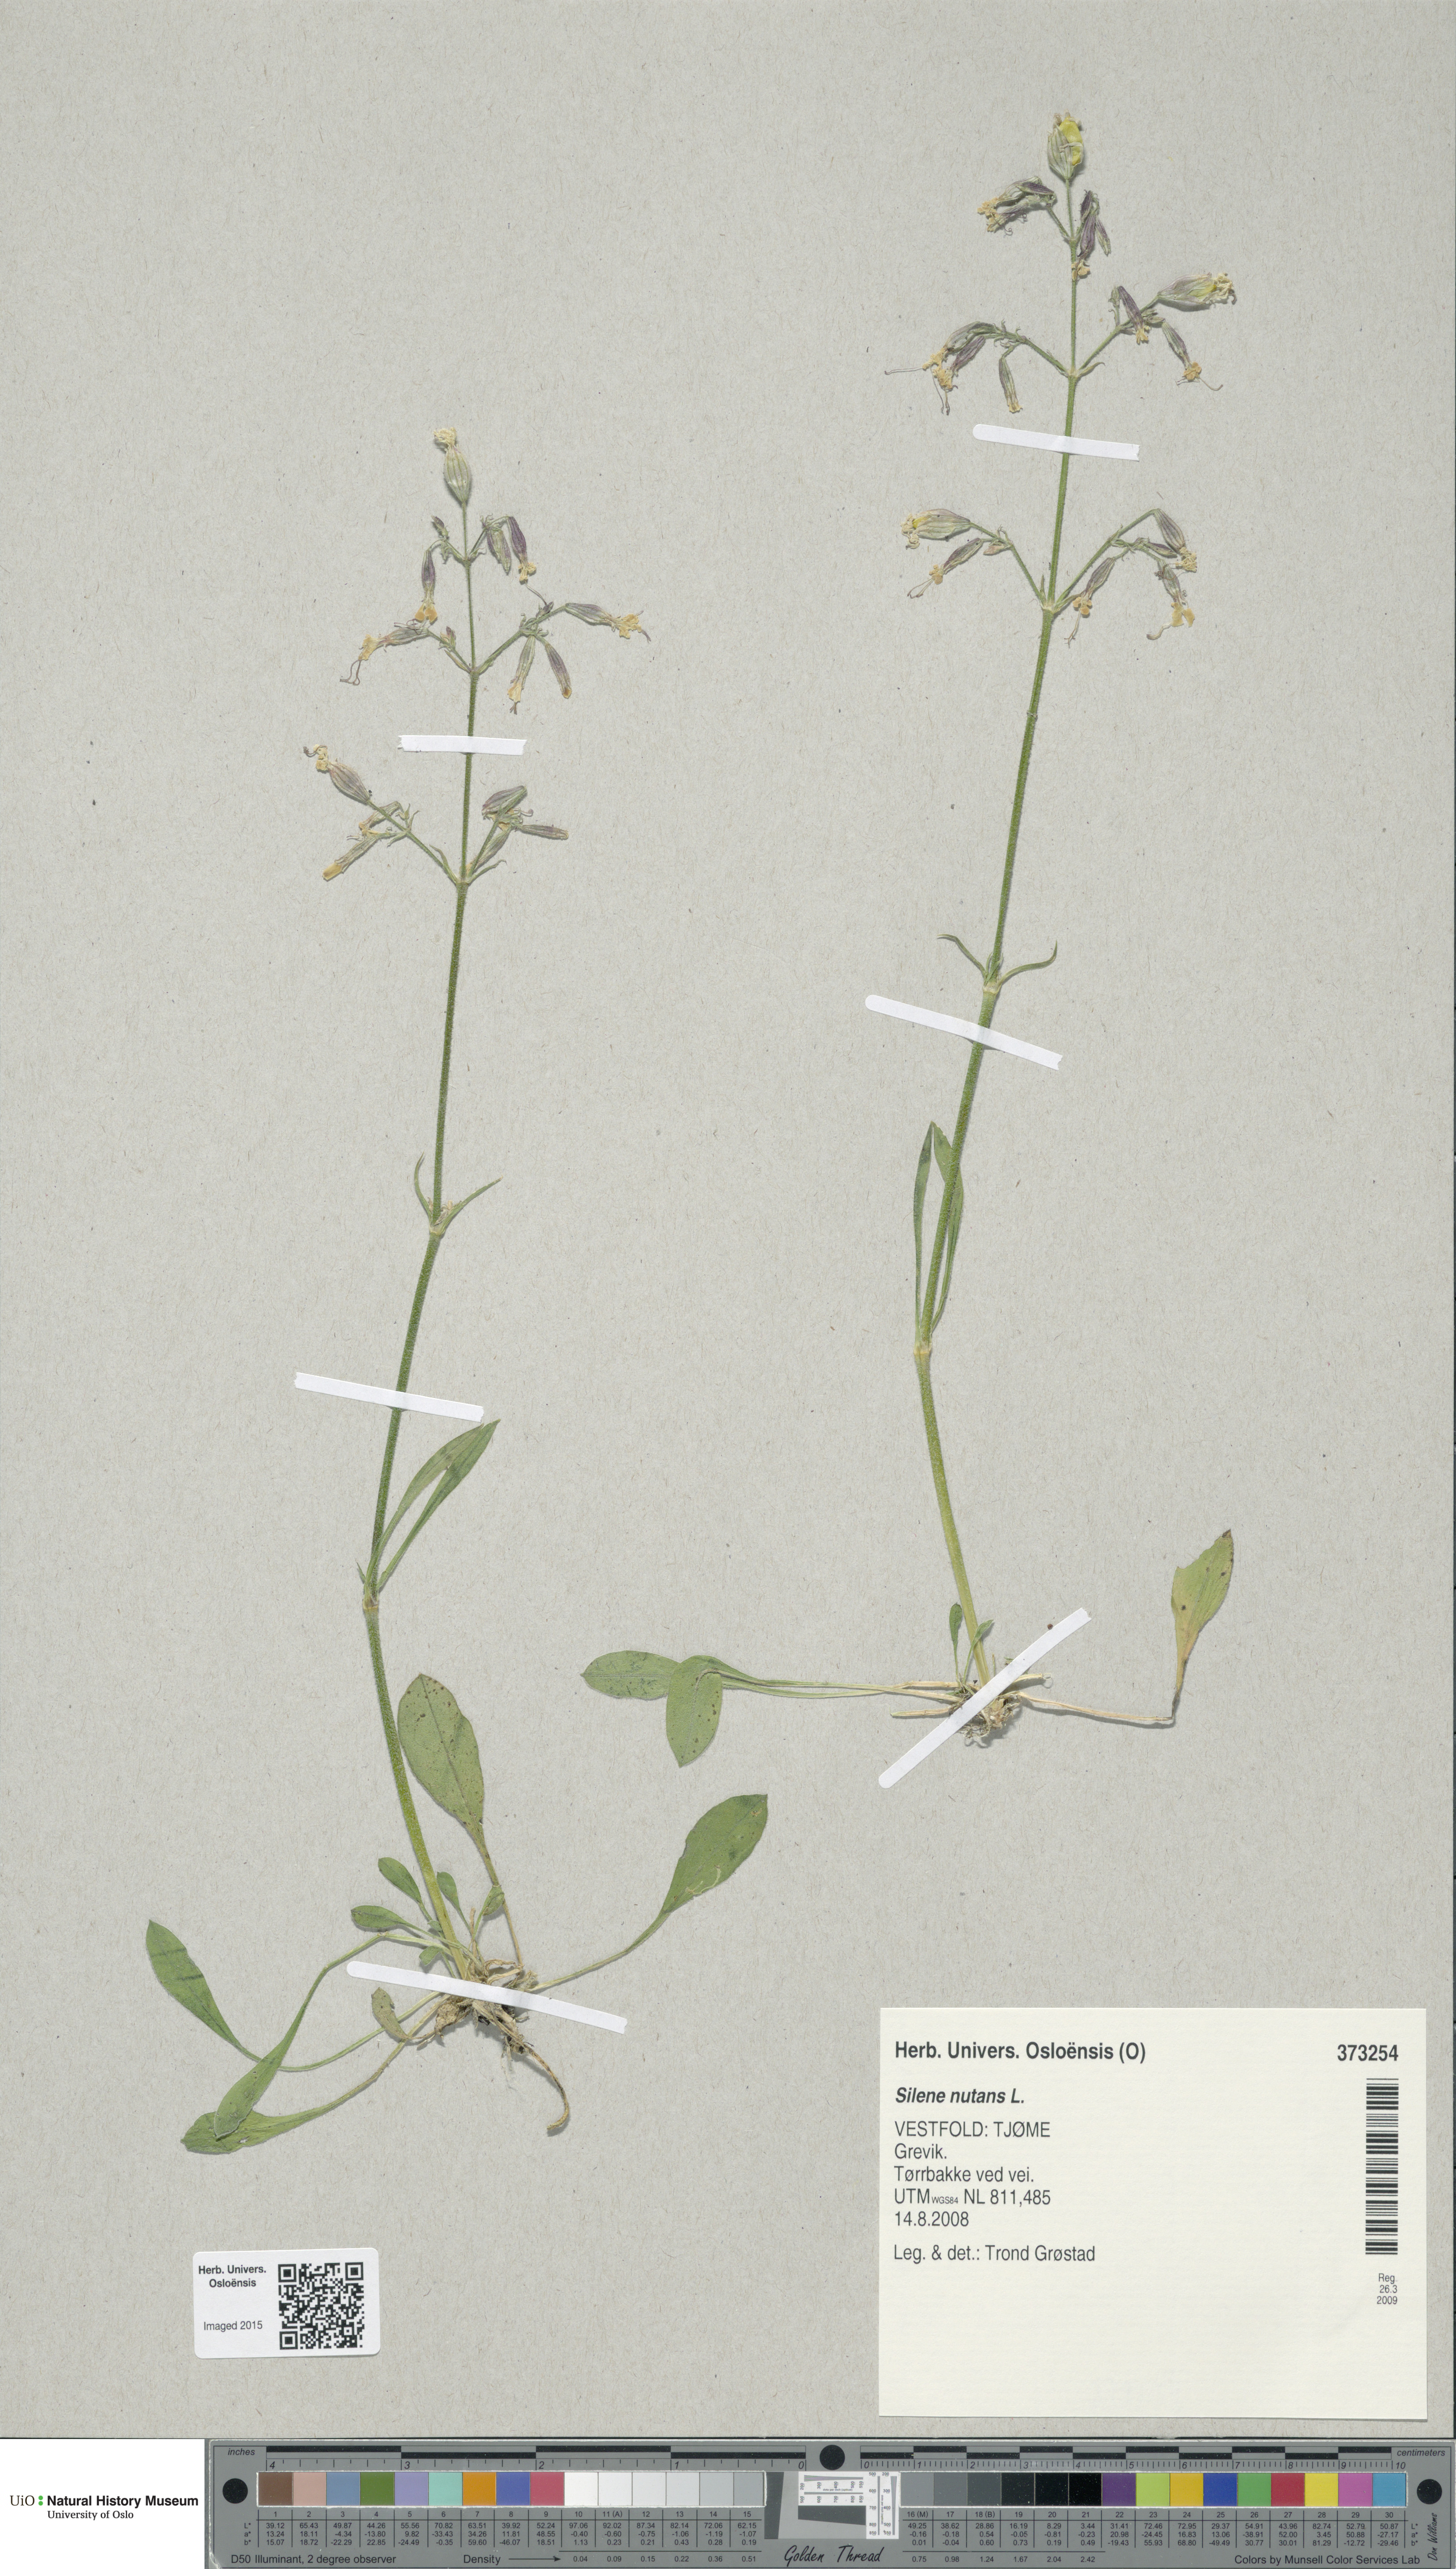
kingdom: Plantae
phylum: Tracheophyta
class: Magnoliopsida
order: Caryophyllales
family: Caryophyllaceae
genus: Silene
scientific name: Silene nutans
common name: Nottingham catchfly
